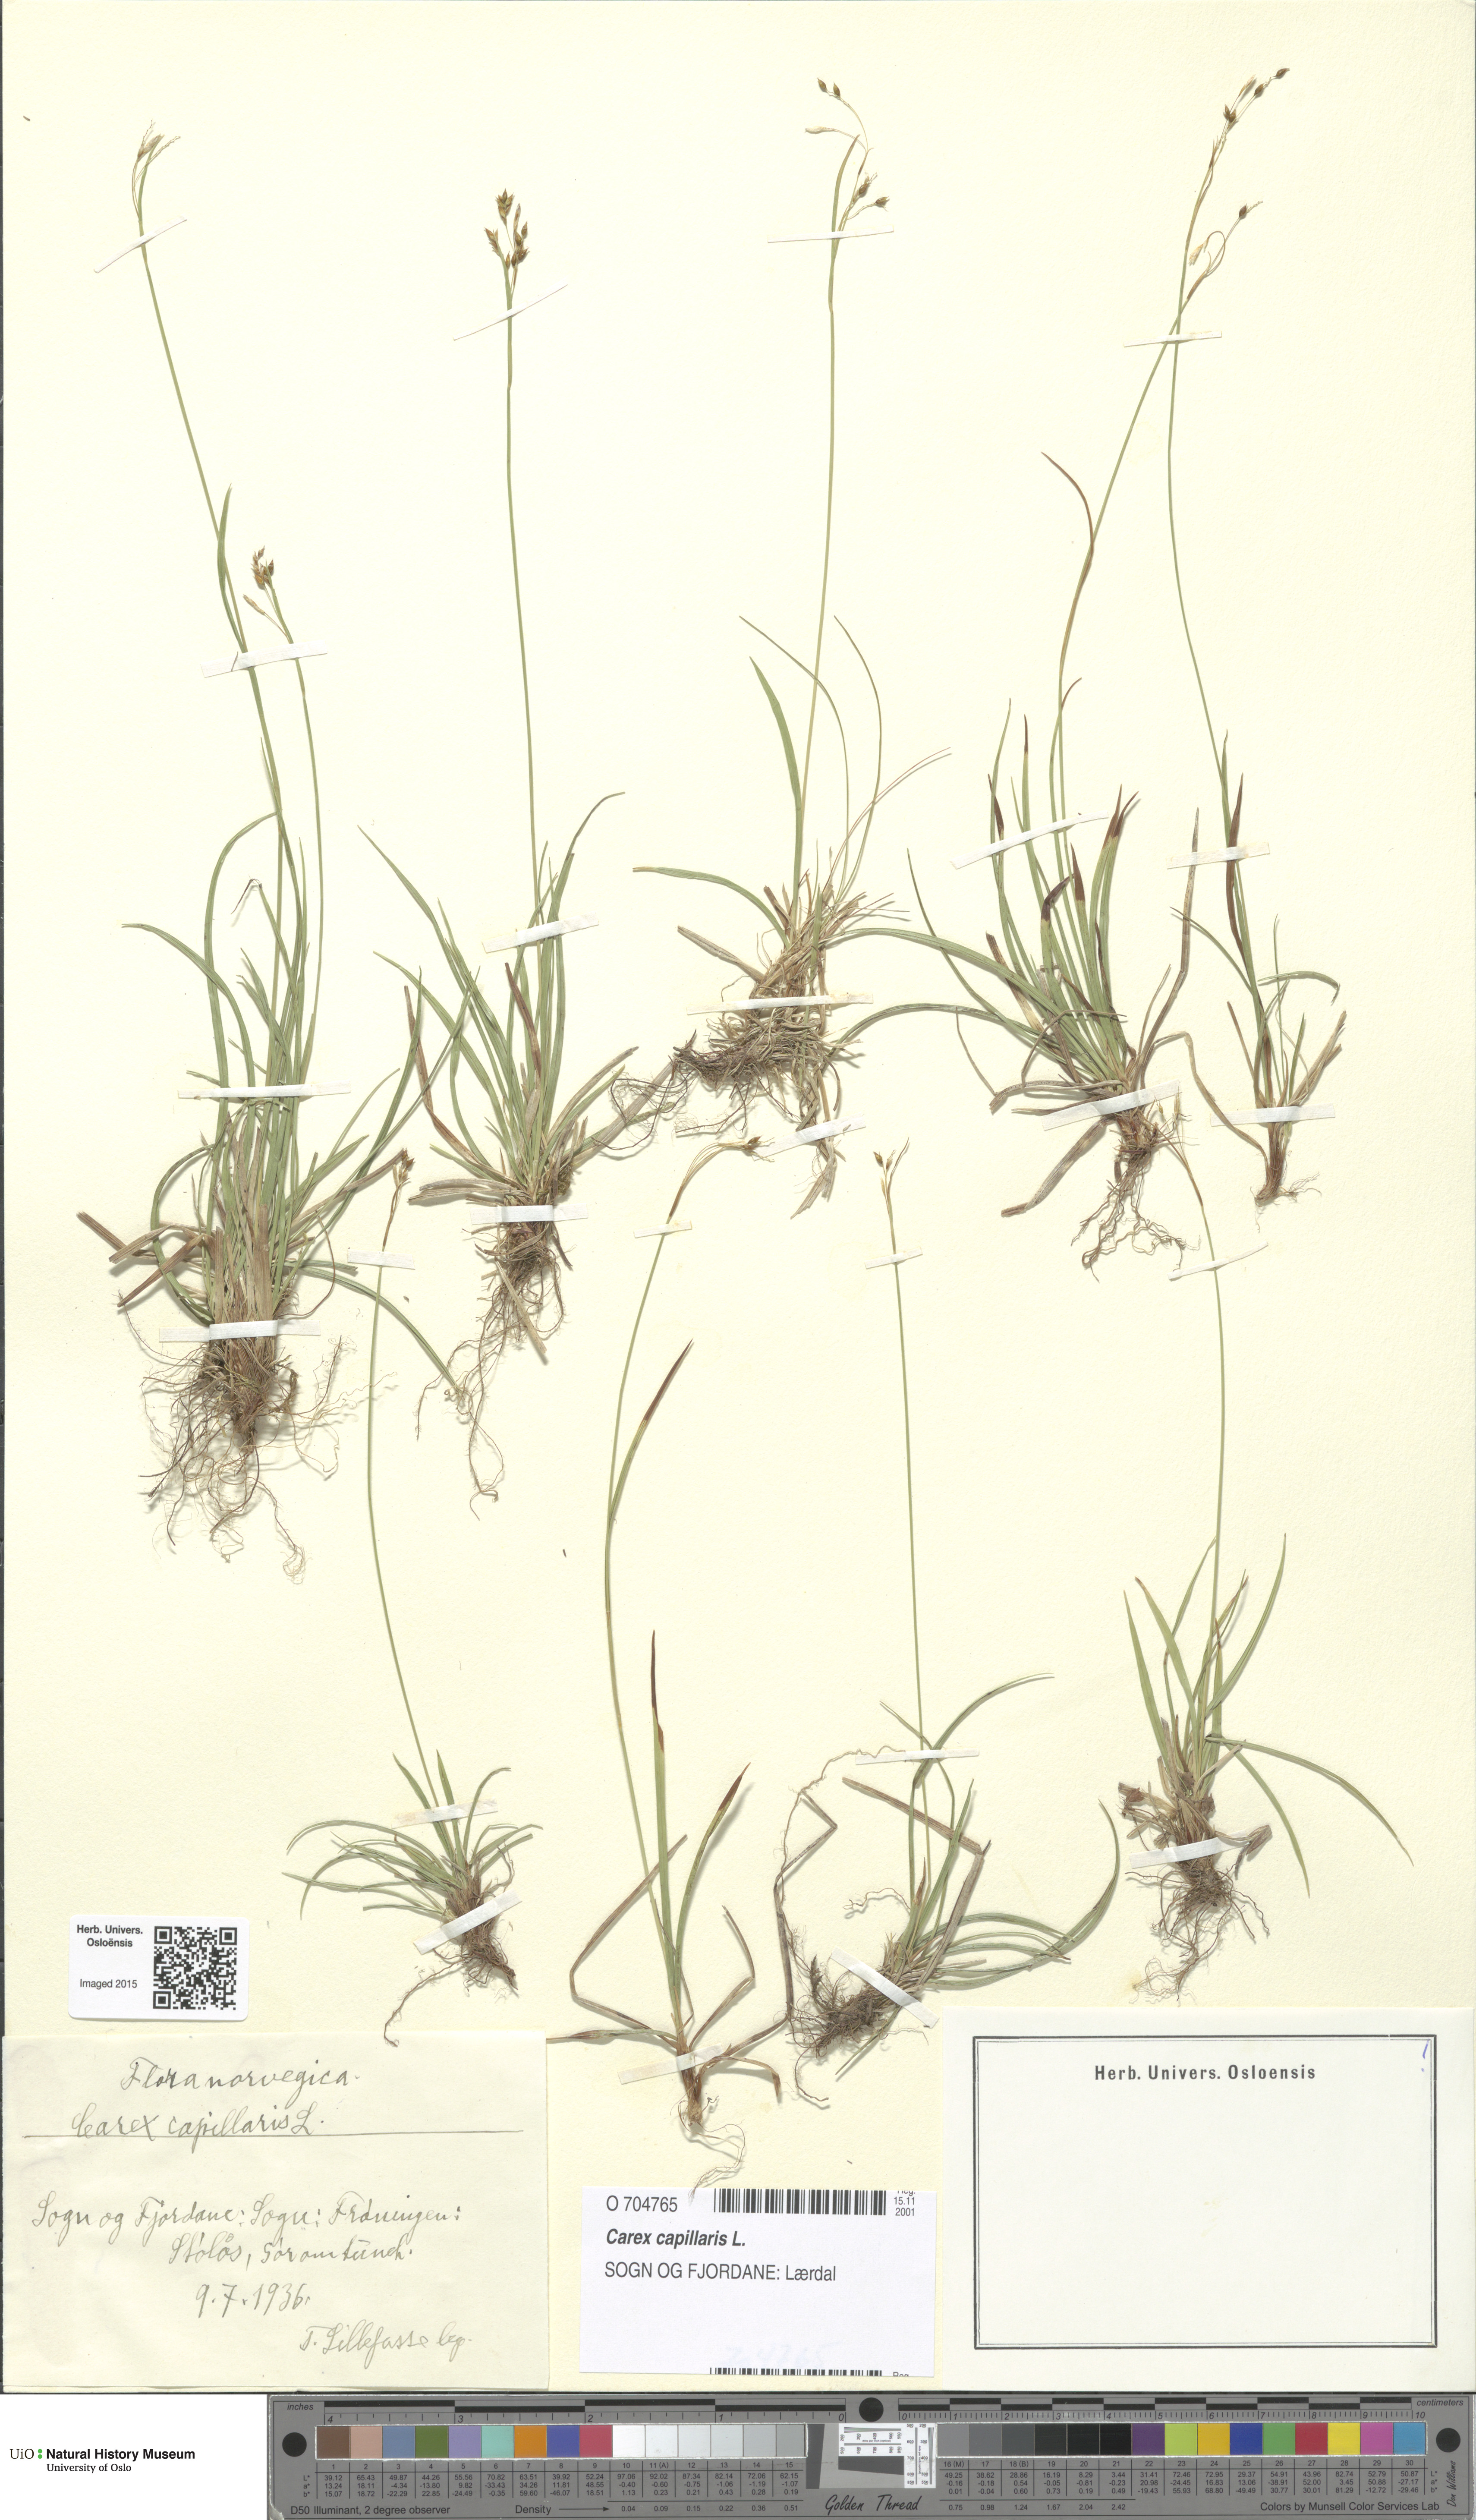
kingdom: Plantae
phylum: Tracheophyta
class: Liliopsida
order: Poales
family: Cyperaceae
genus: Carex
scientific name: Carex capillaris
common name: Hair sedge
